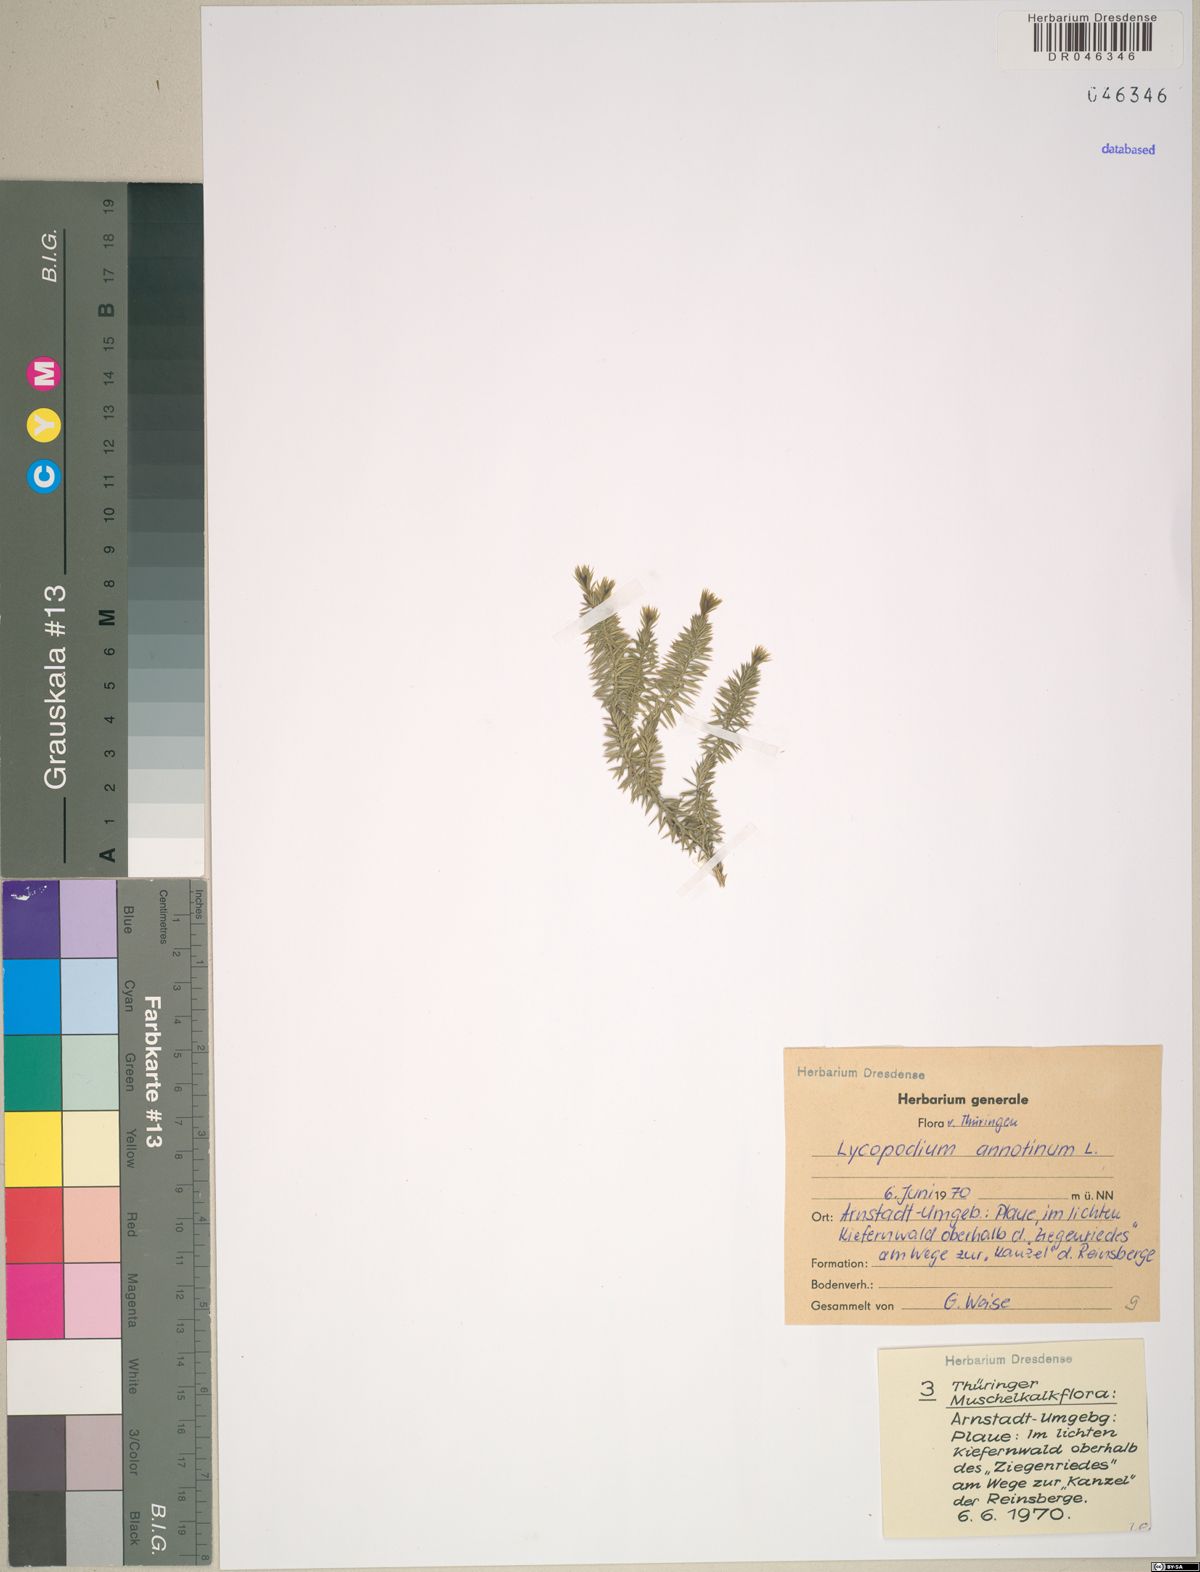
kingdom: Plantae
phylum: Tracheophyta
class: Lycopodiopsida
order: Lycopodiales
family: Lycopodiaceae
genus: Spinulum
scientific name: Spinulum annotinum
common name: Interrupted club-moss
